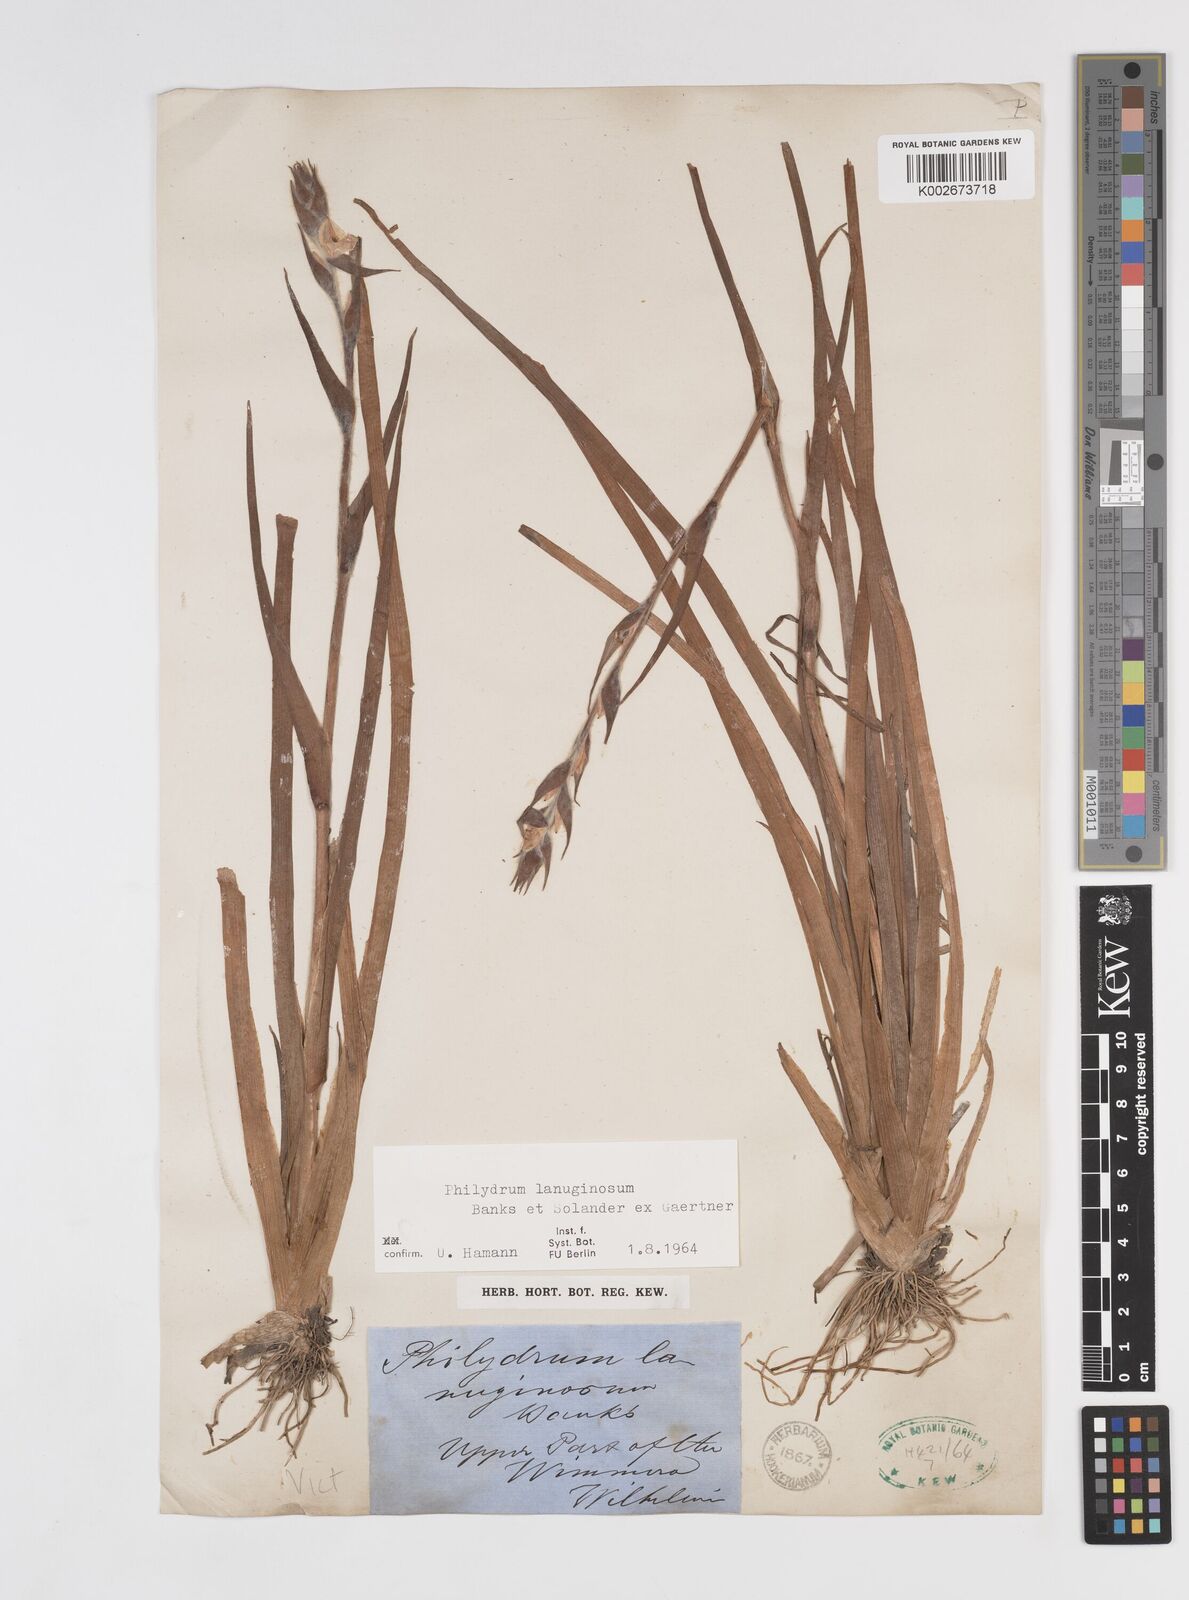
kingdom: Plantae
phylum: Tracheophyta
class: Liliopsida
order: Commelinales
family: Philydraceae
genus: Philydrum
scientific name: Philydrum lanuginosum
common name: Woolly frog's mouth
